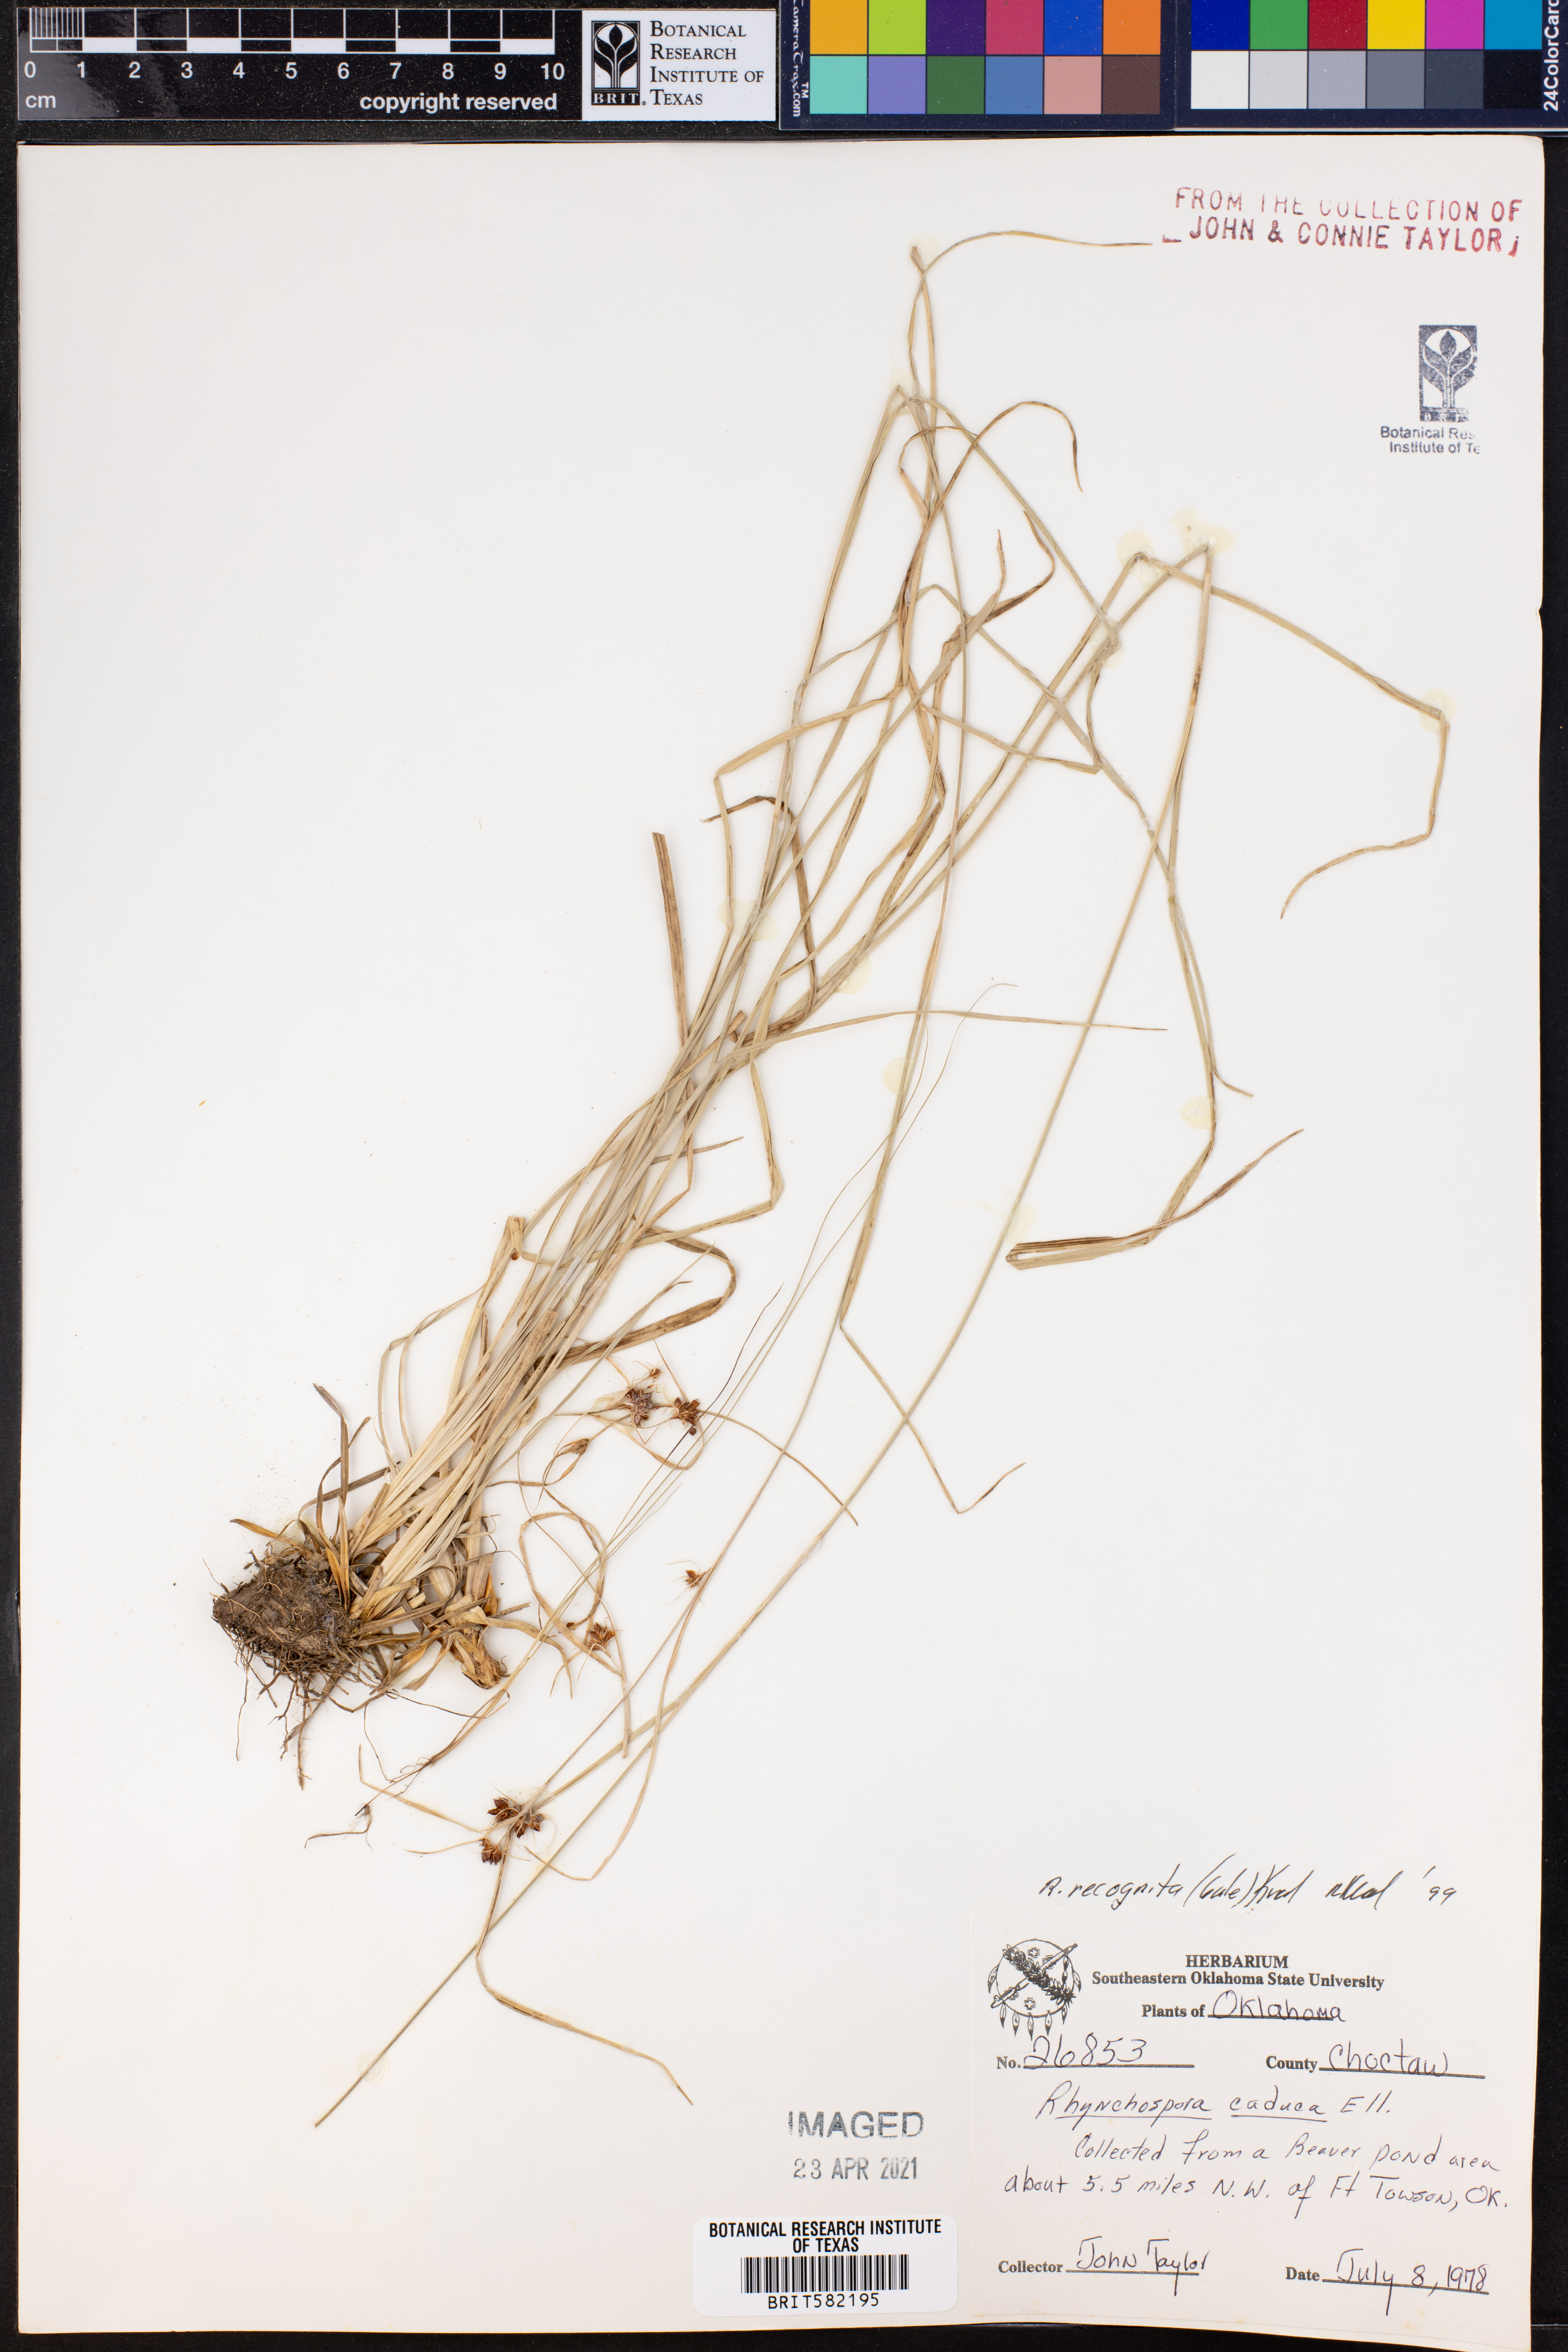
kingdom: Plantae
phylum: Tracheophyta
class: Liliopsida
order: Poales
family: Cyperaceae
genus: Rhynchospora
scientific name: Rhynchospora recognita
